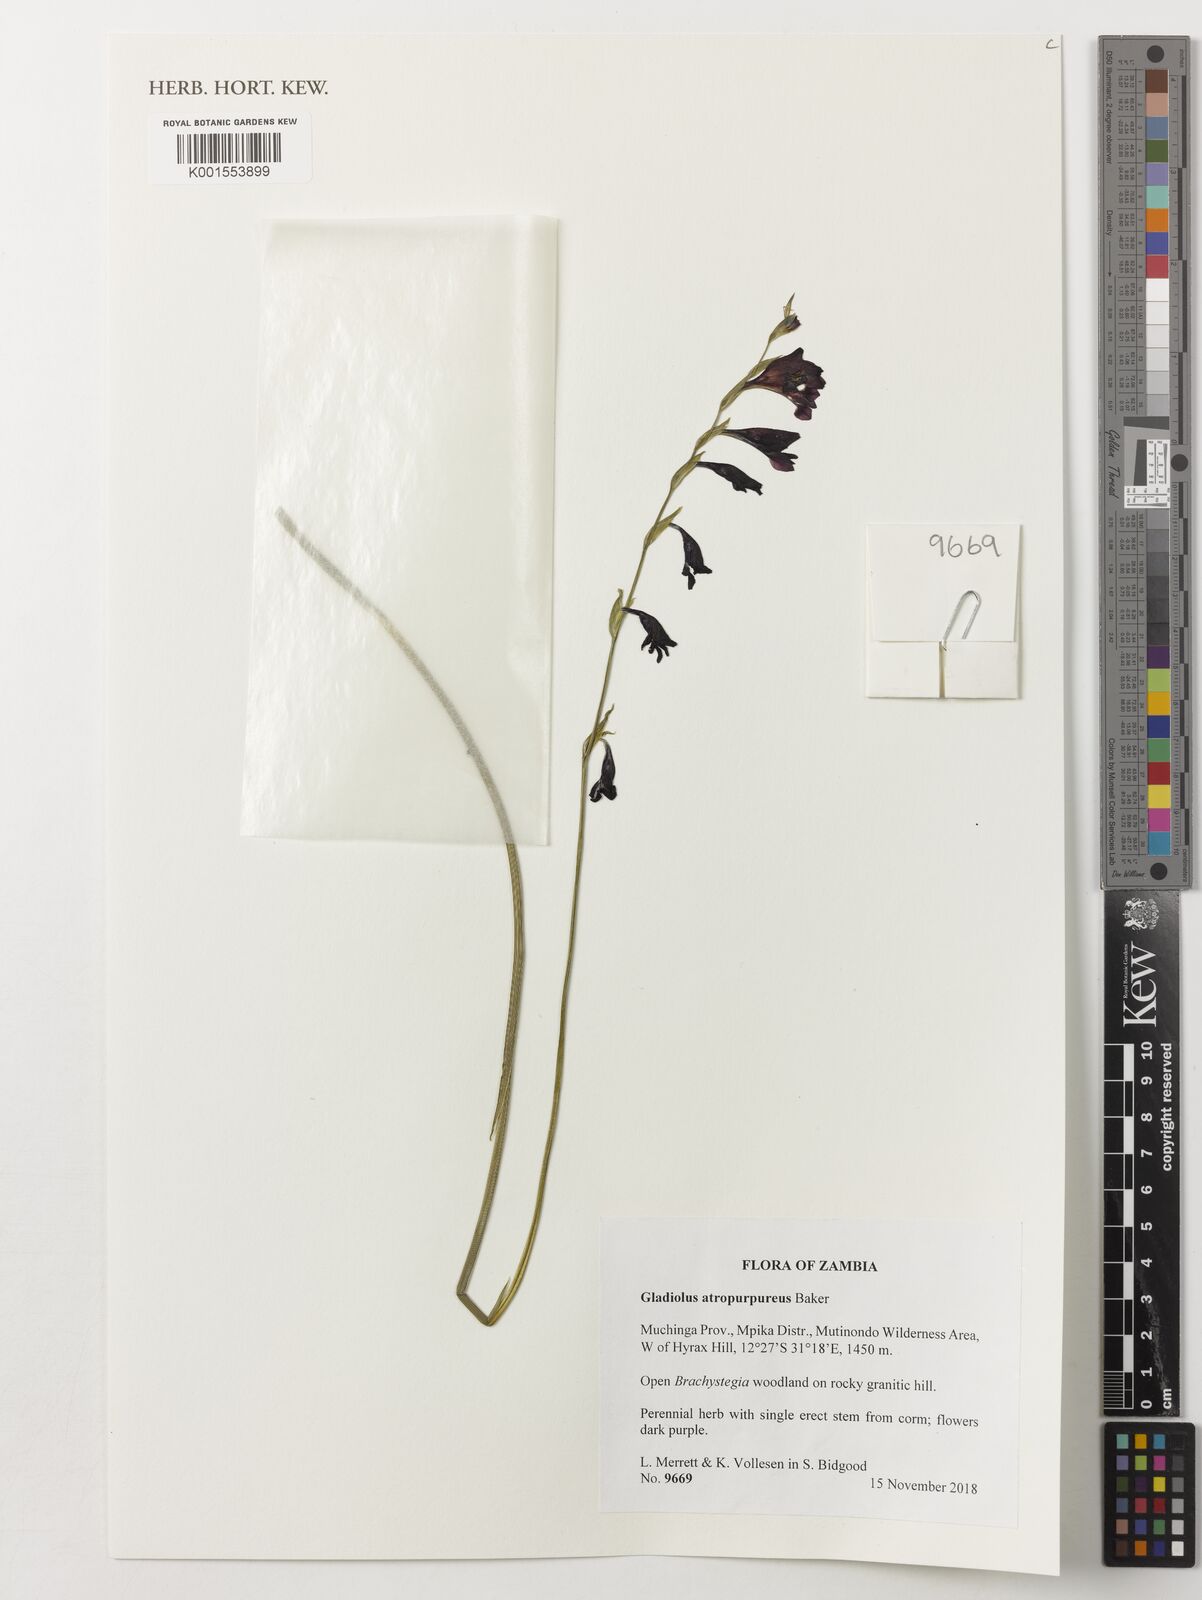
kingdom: Plantae
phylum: Tracheophyta
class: Liliopsida
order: Asparagales
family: Iridaceae
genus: Gladiolus
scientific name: Gladiolus atropurpureus
